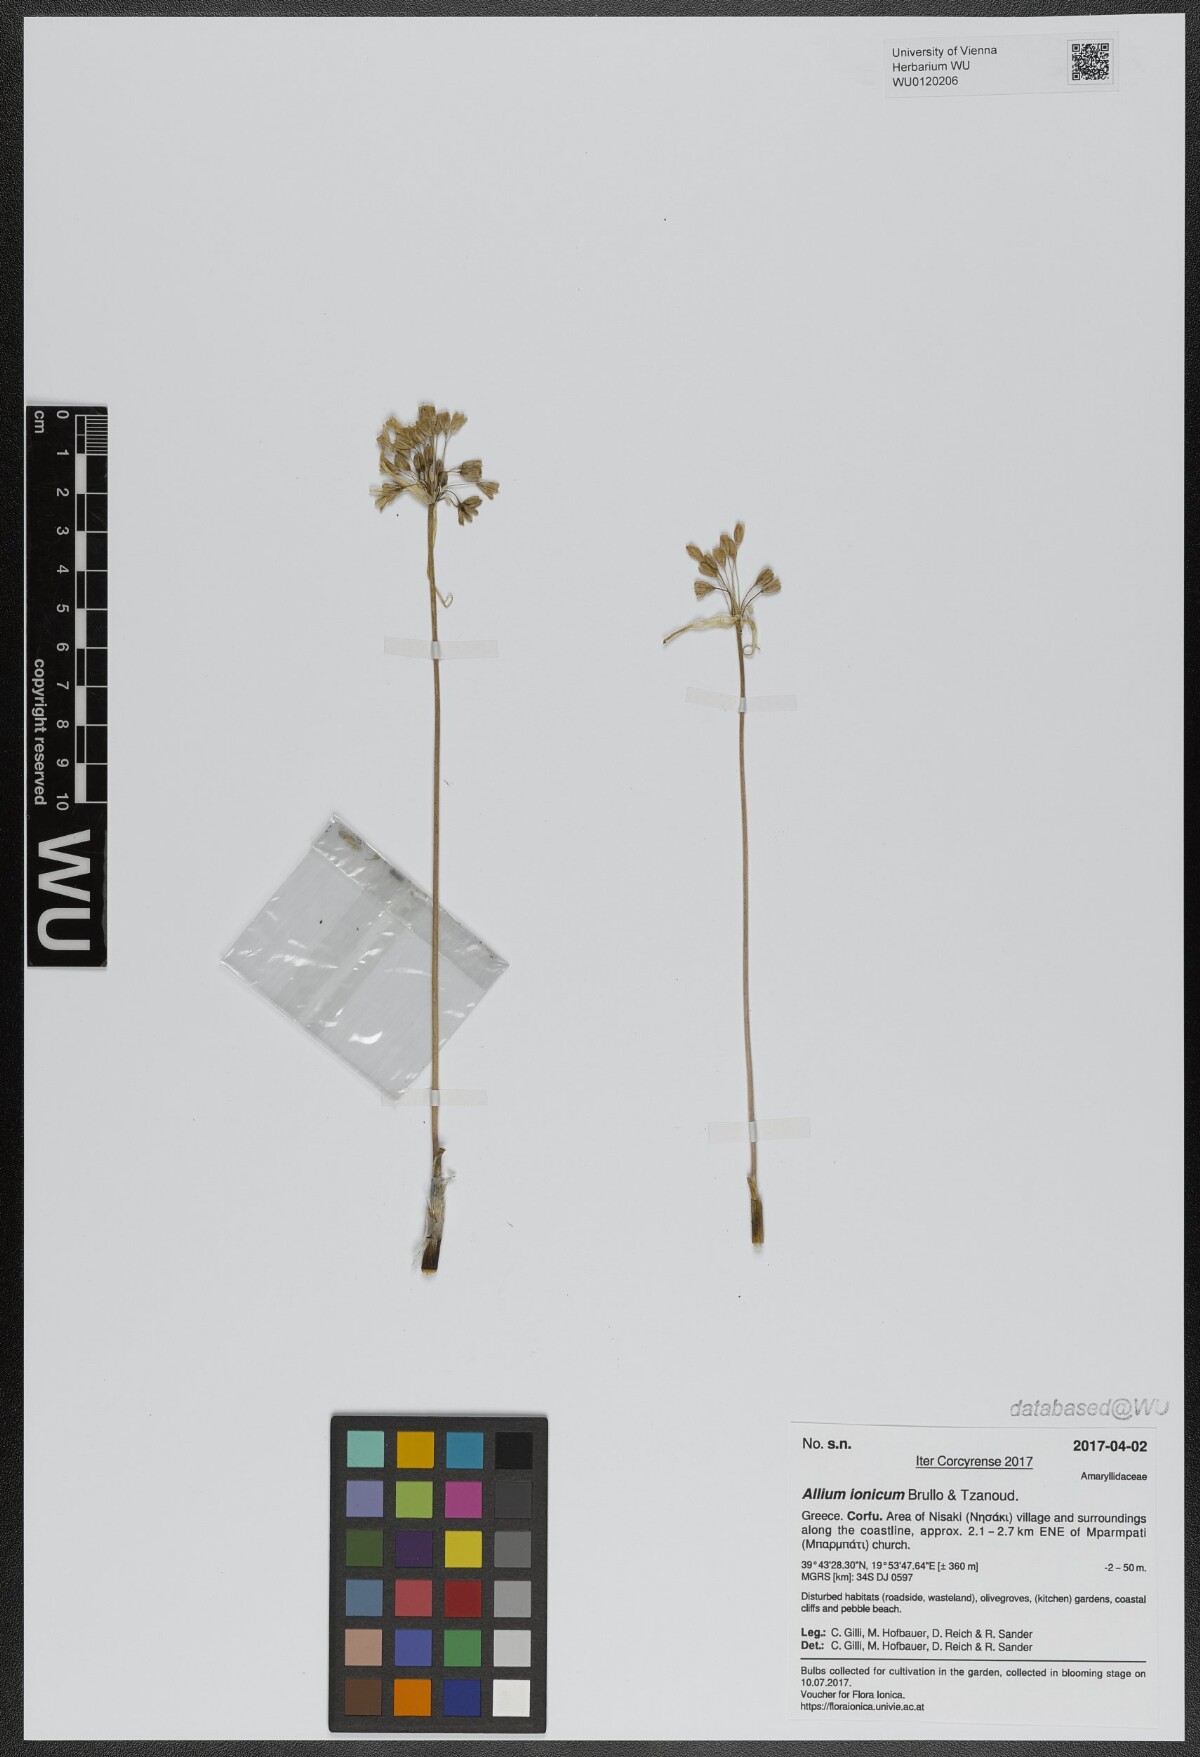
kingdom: Plantae
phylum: Tracheophyta
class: Liliopsida
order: Asparagales
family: Amaryllidaceae
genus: Allium
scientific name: Allium ionicum
